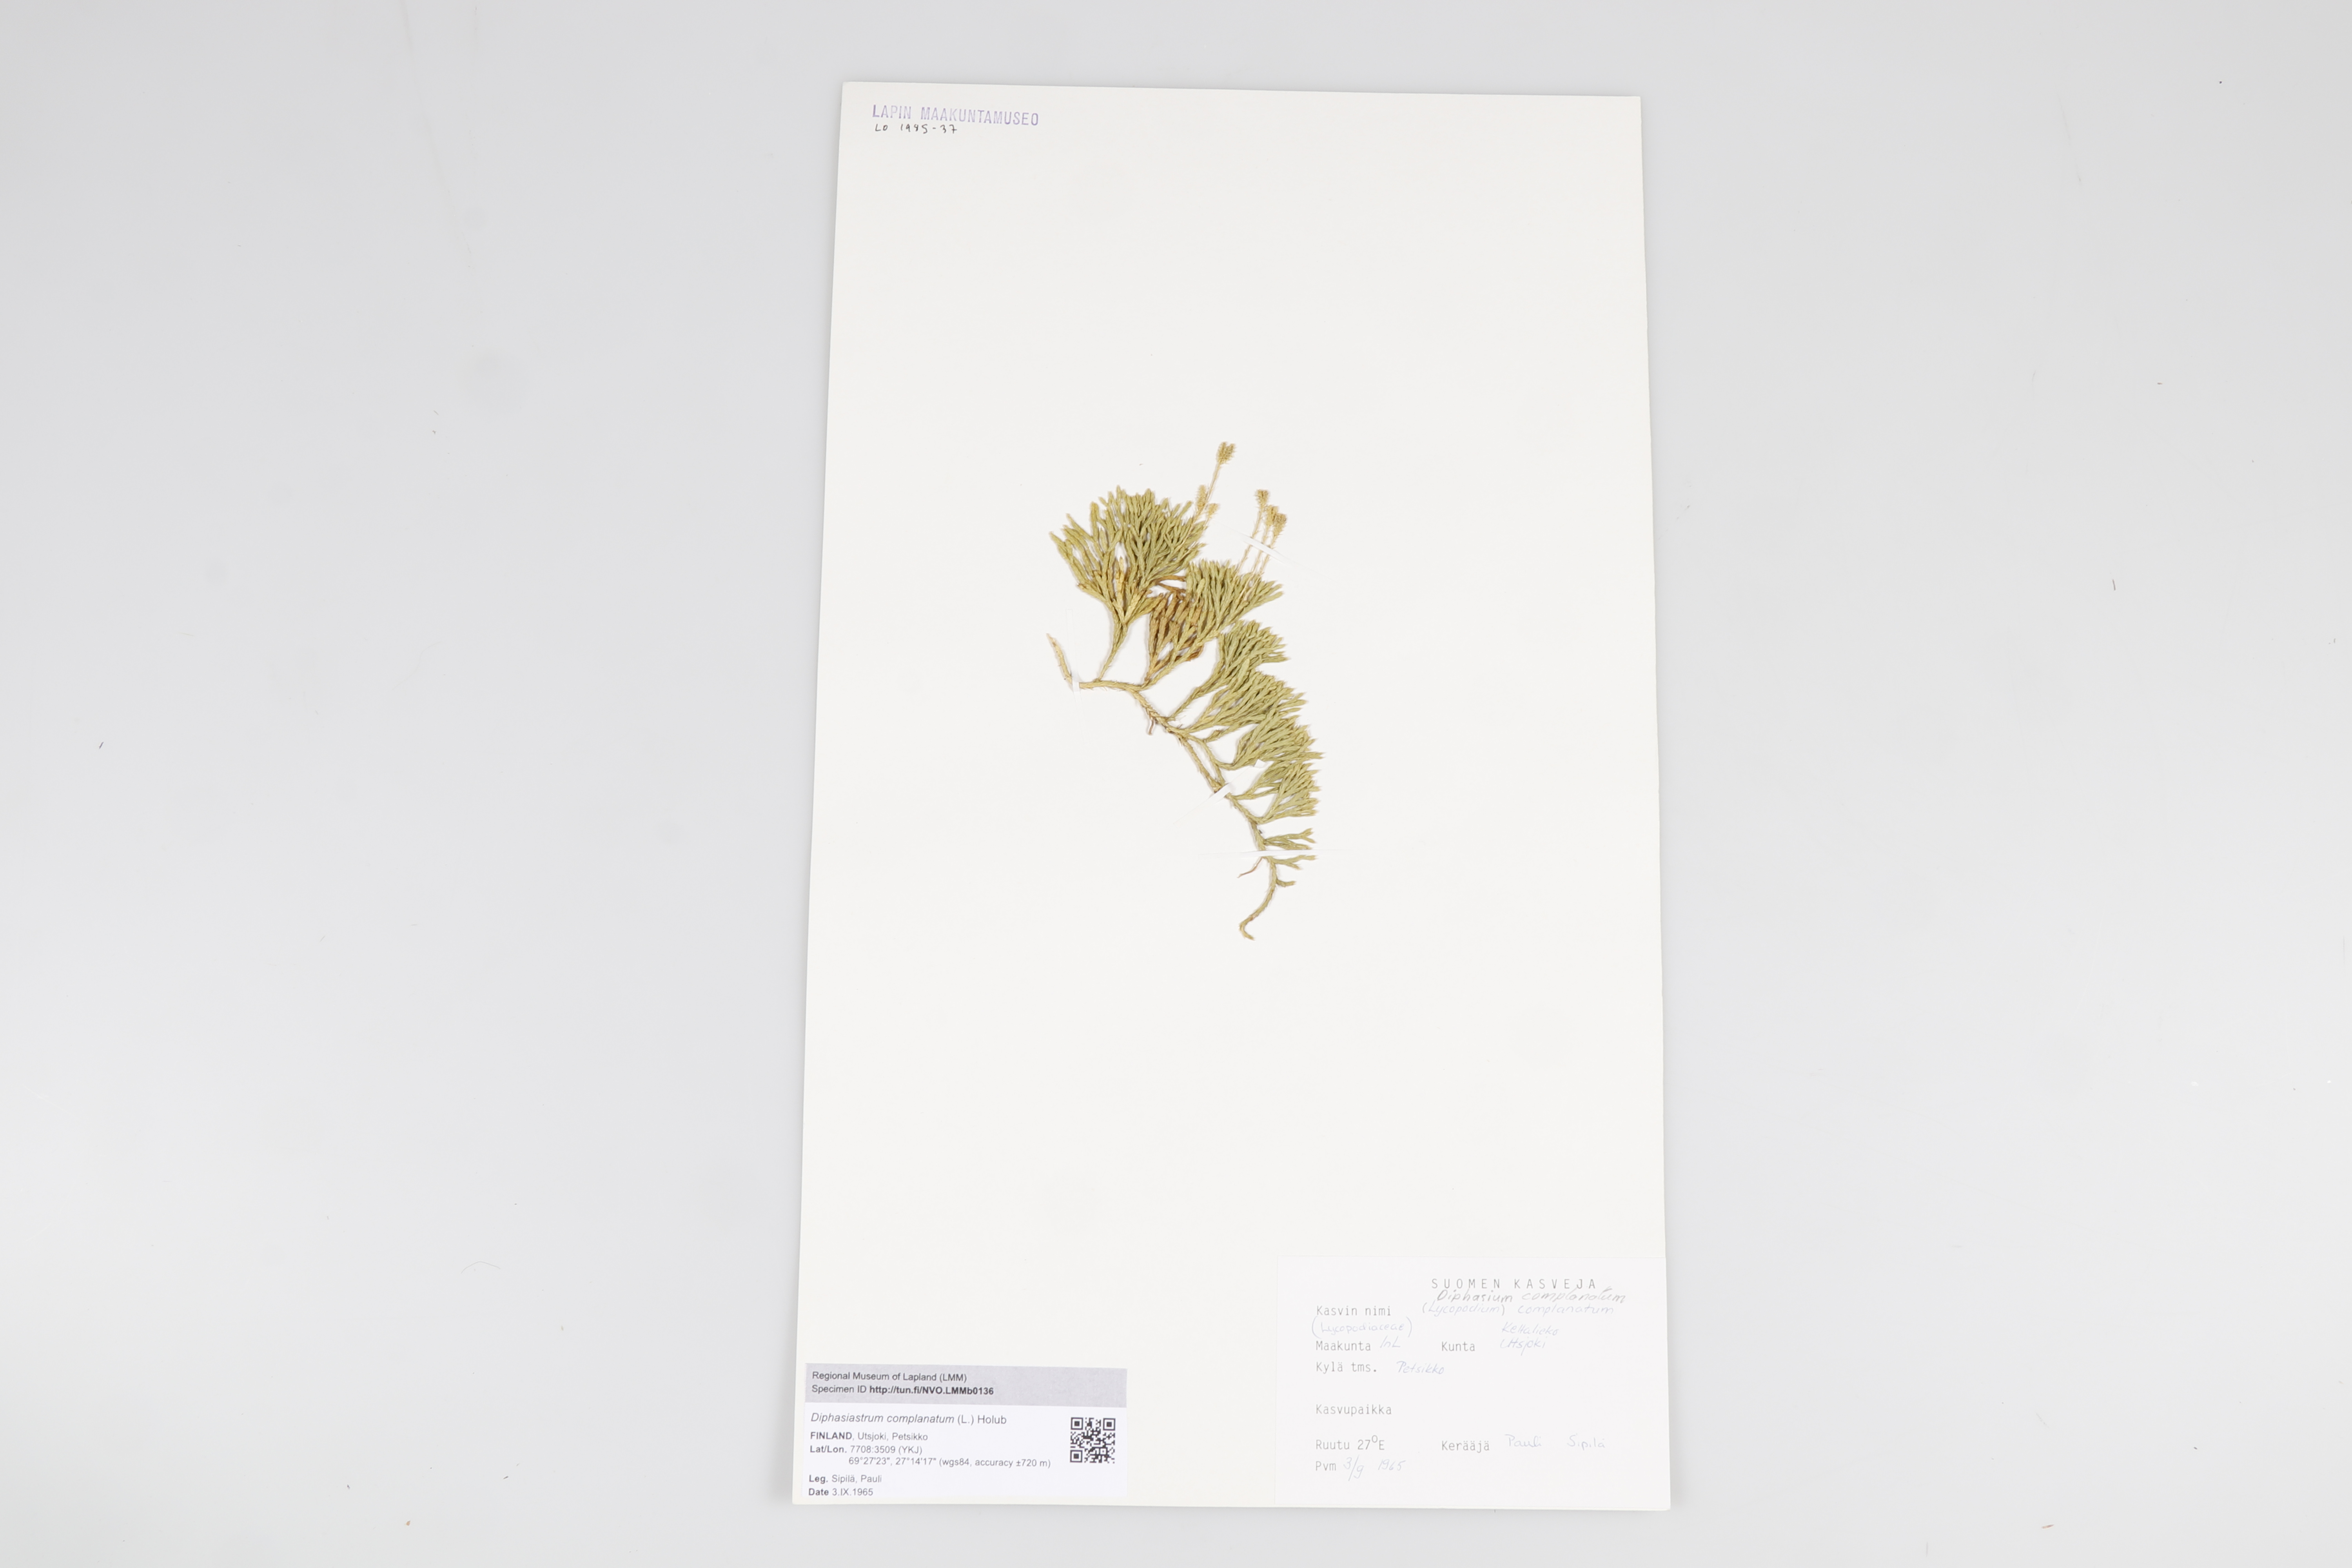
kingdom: Plantae
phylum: Tracheophyta
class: Lycopodiopsida
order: Lycopodiales
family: Lycopodiaceae
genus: Diphasiastrum
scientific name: Diphasiastrum
